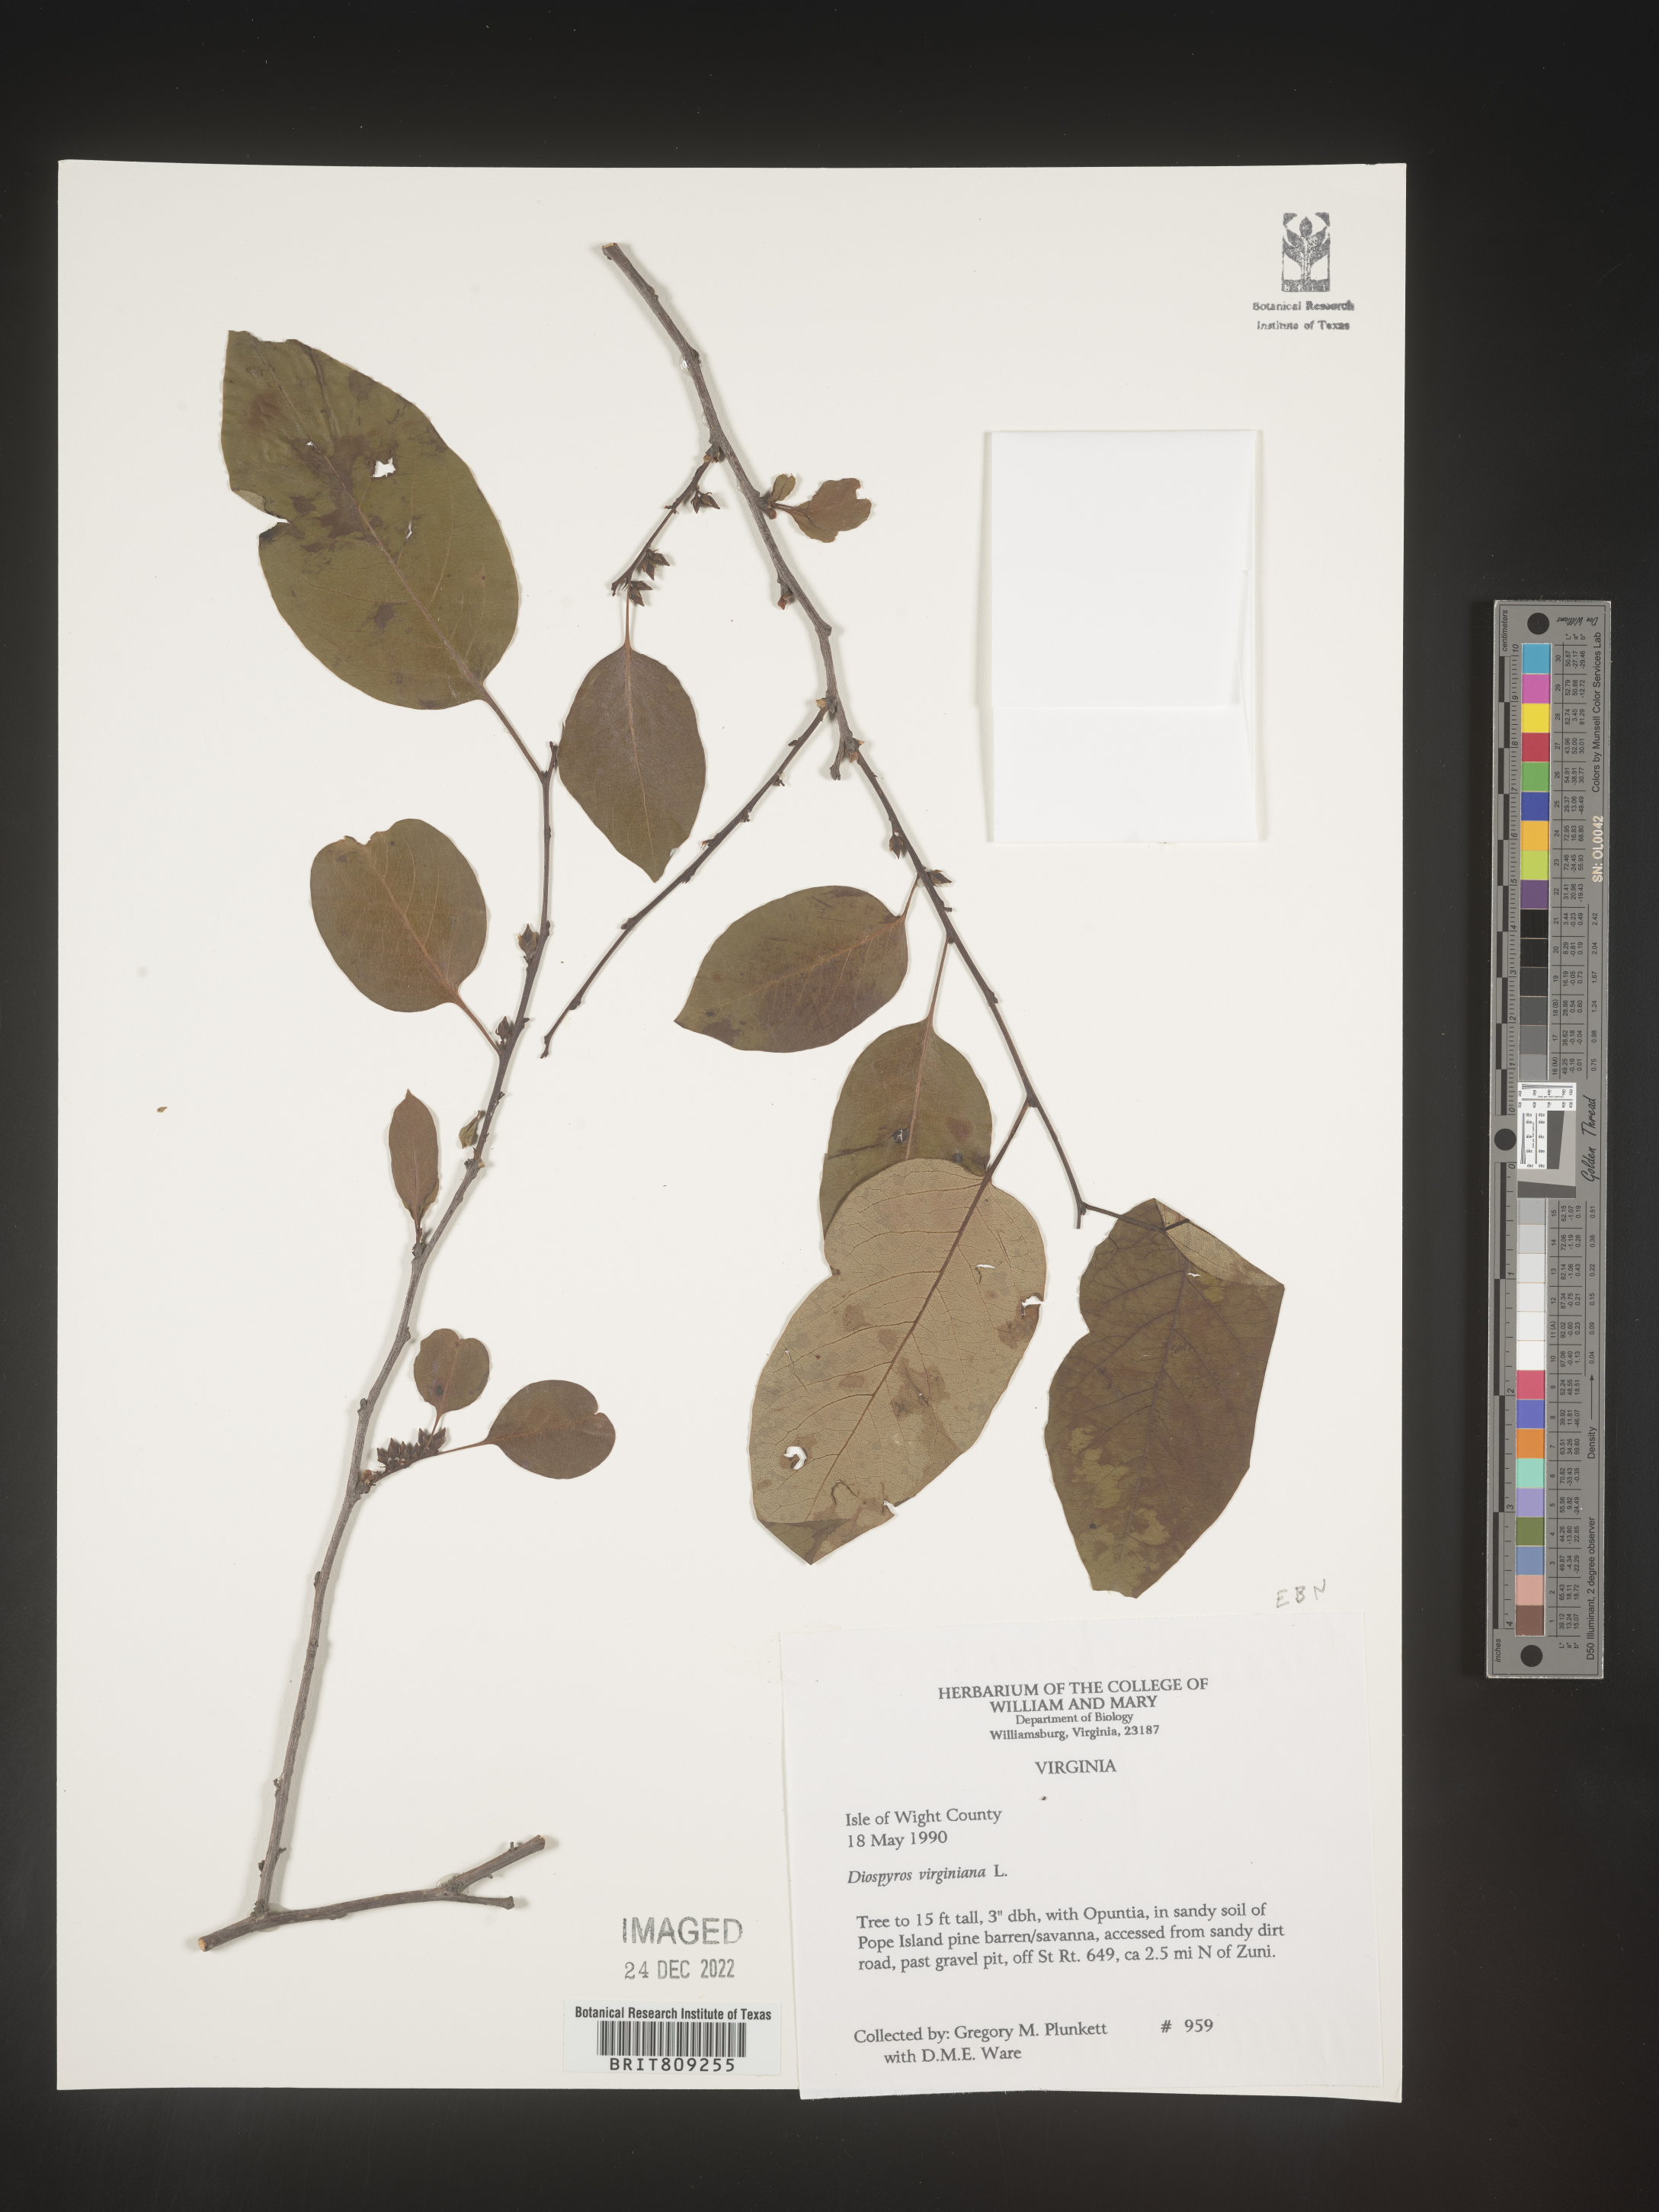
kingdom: Plantae
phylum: Tracheophyta
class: Magnoliopsida
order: Ericales
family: Ebenaceae
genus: Diospyros
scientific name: Diospyros virginiana
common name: Persimmon
